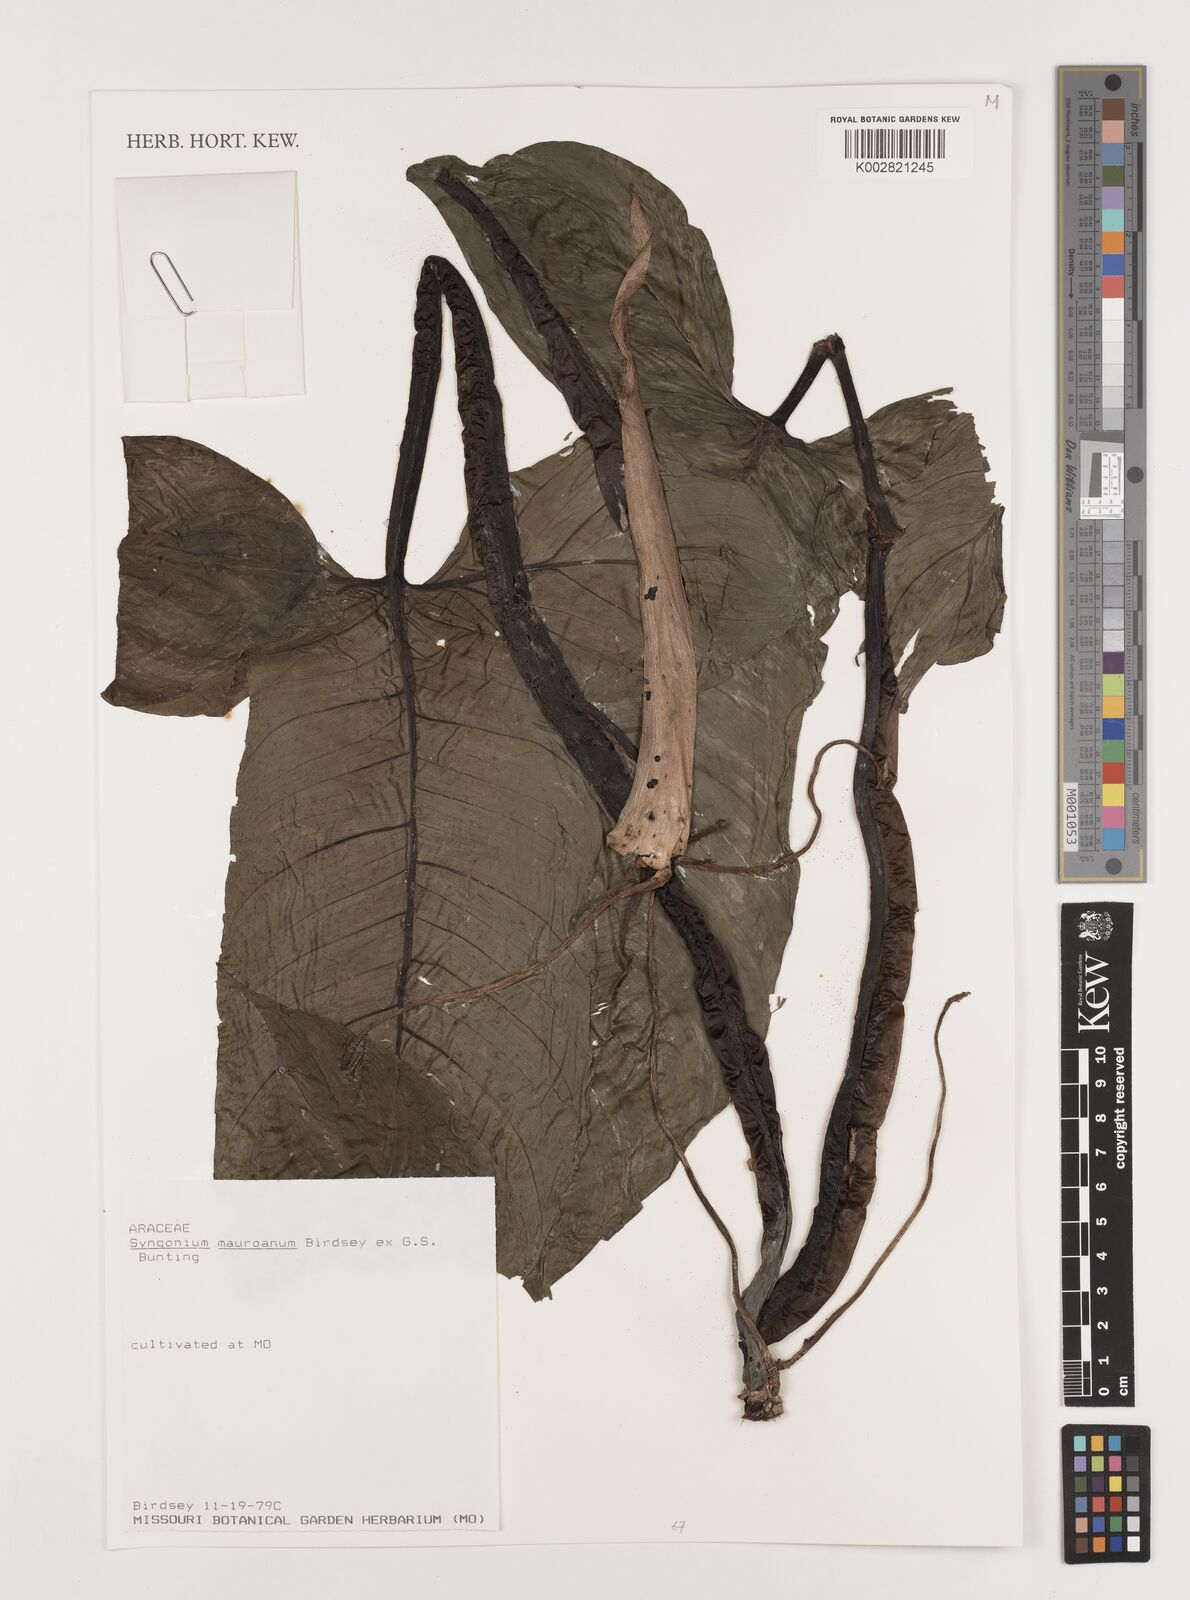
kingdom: Plantae
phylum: Tracheophyta
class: Liliopsida
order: Alismatales
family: Araceae
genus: Syngonium
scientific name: Syngonium mauroanum
